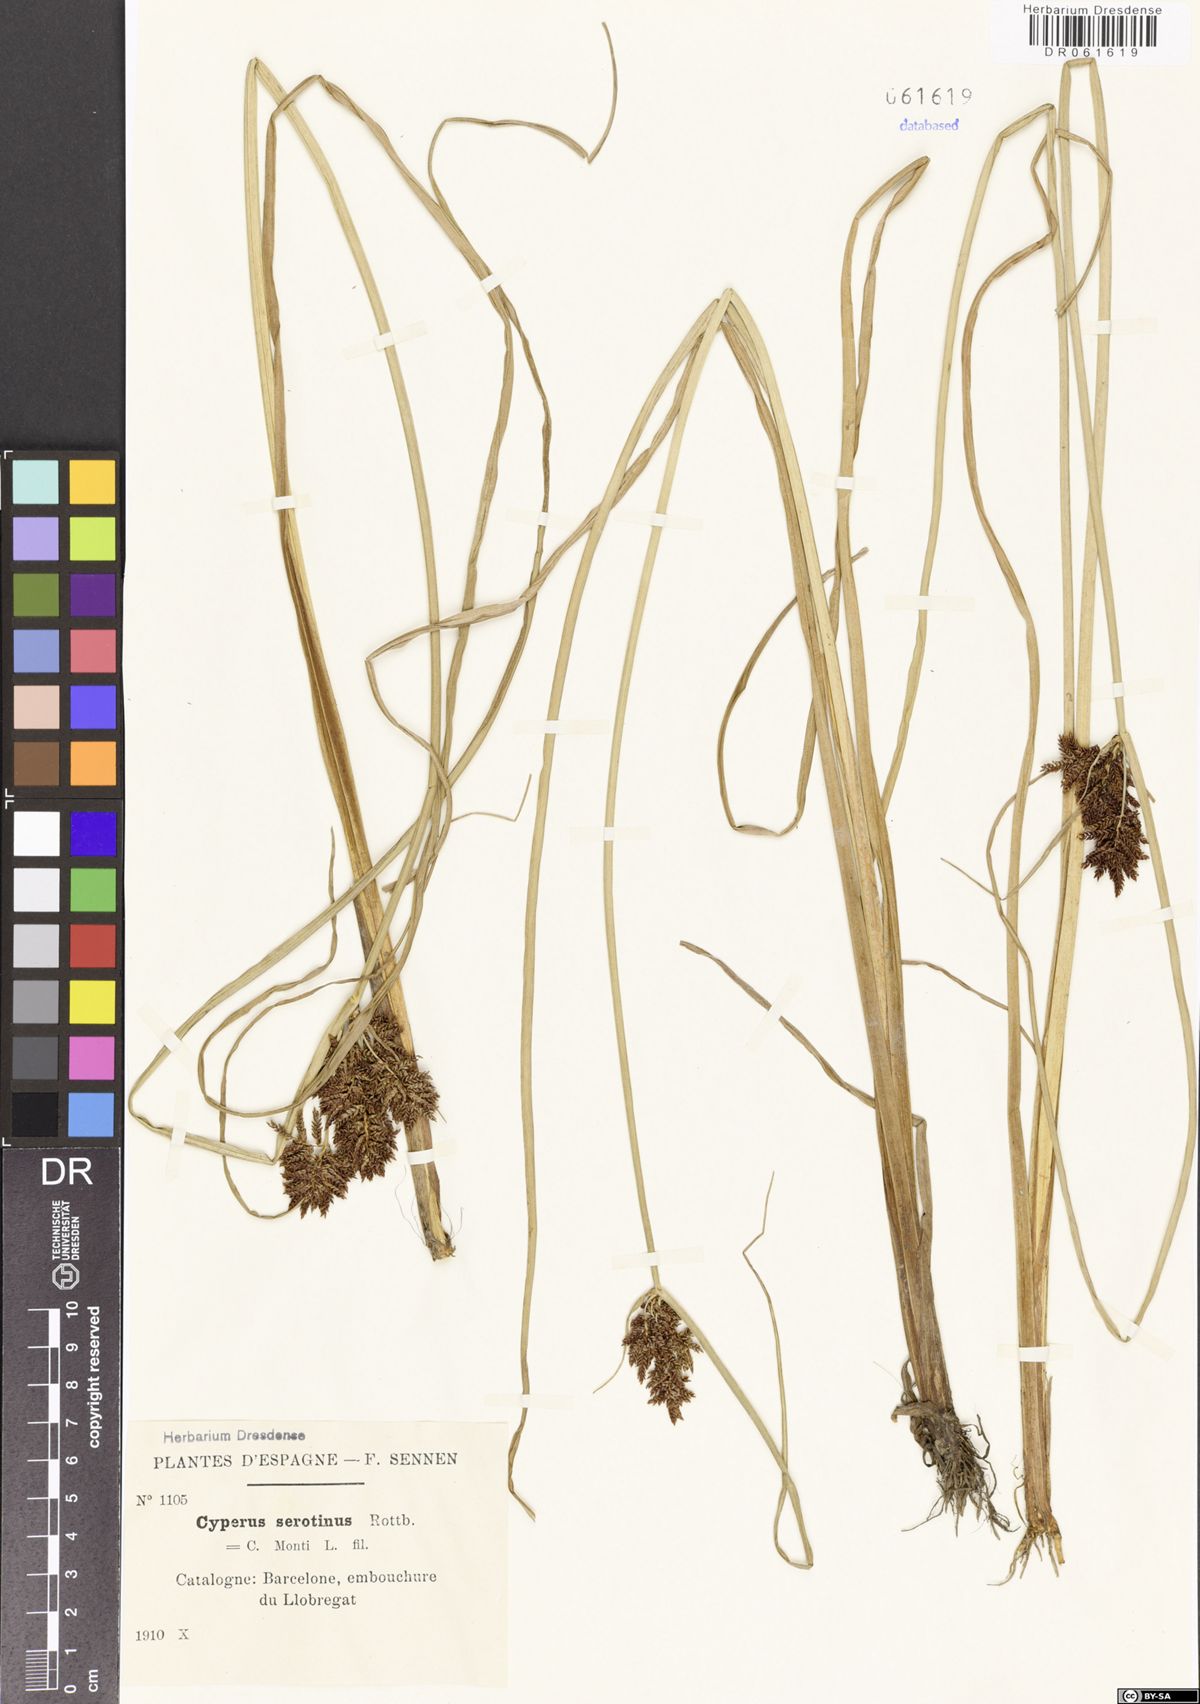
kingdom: Plantae
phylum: Tracheophyta
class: Liliopsida
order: Poales
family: Cyperaceae
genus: Cyperus
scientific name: Cyperus serotinus
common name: Tidalmarsh flatsedge
